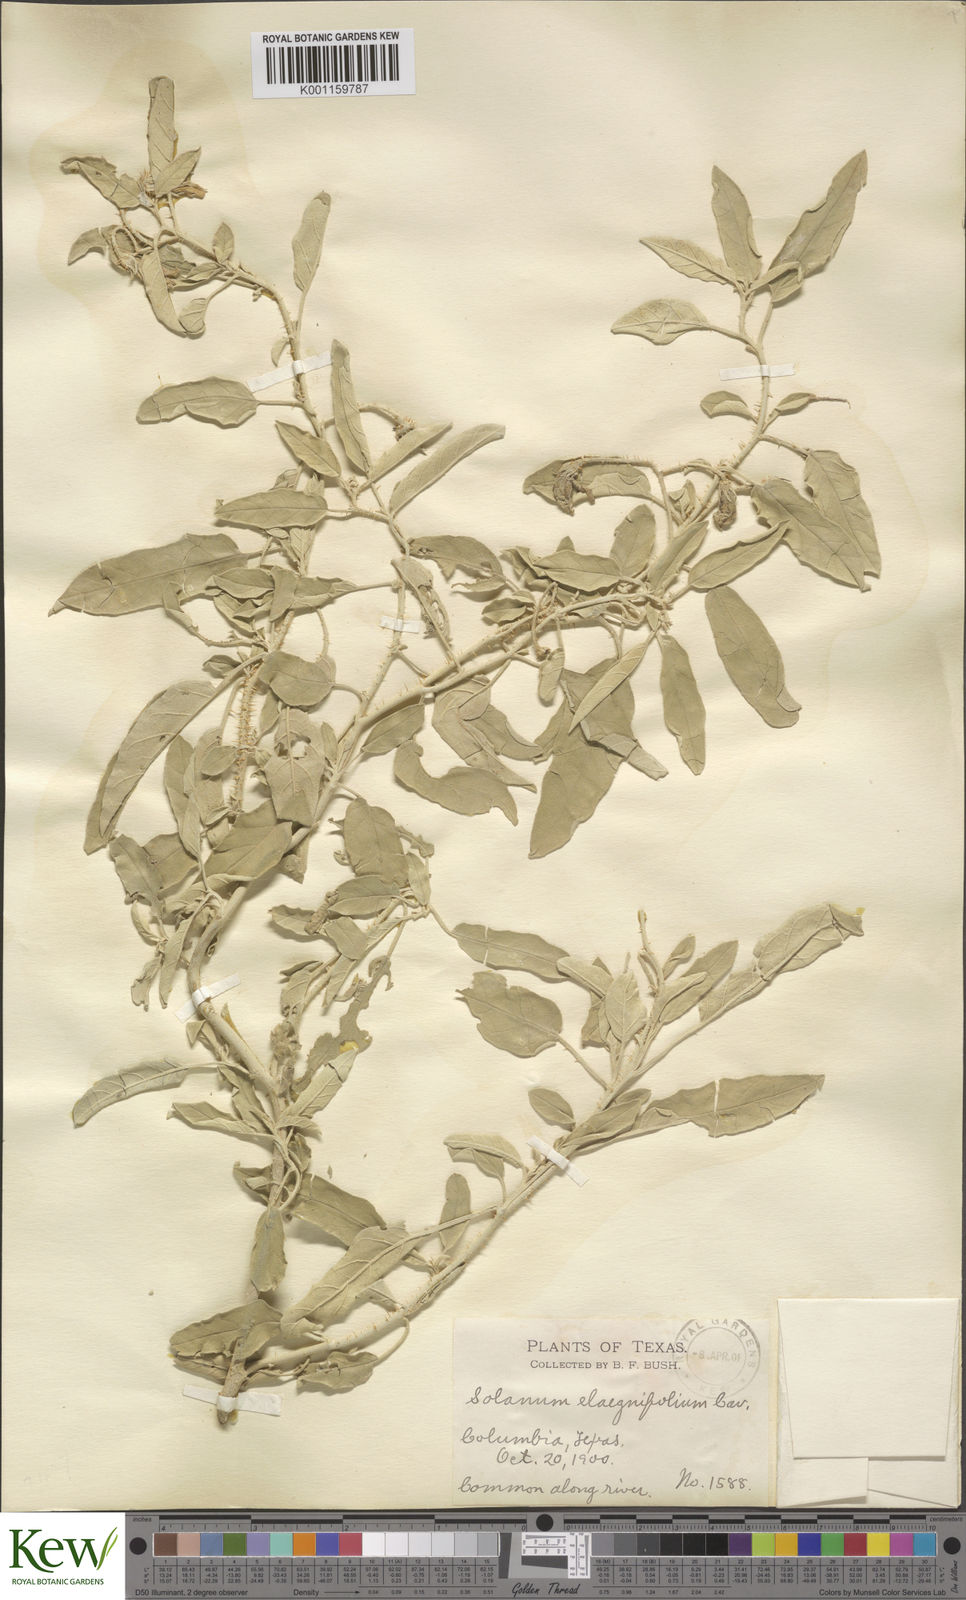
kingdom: Plantae
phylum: Tracheophyta
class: Magnoliopsida
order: Solanales
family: Solanaceae
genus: Solanum
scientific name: Solanum
